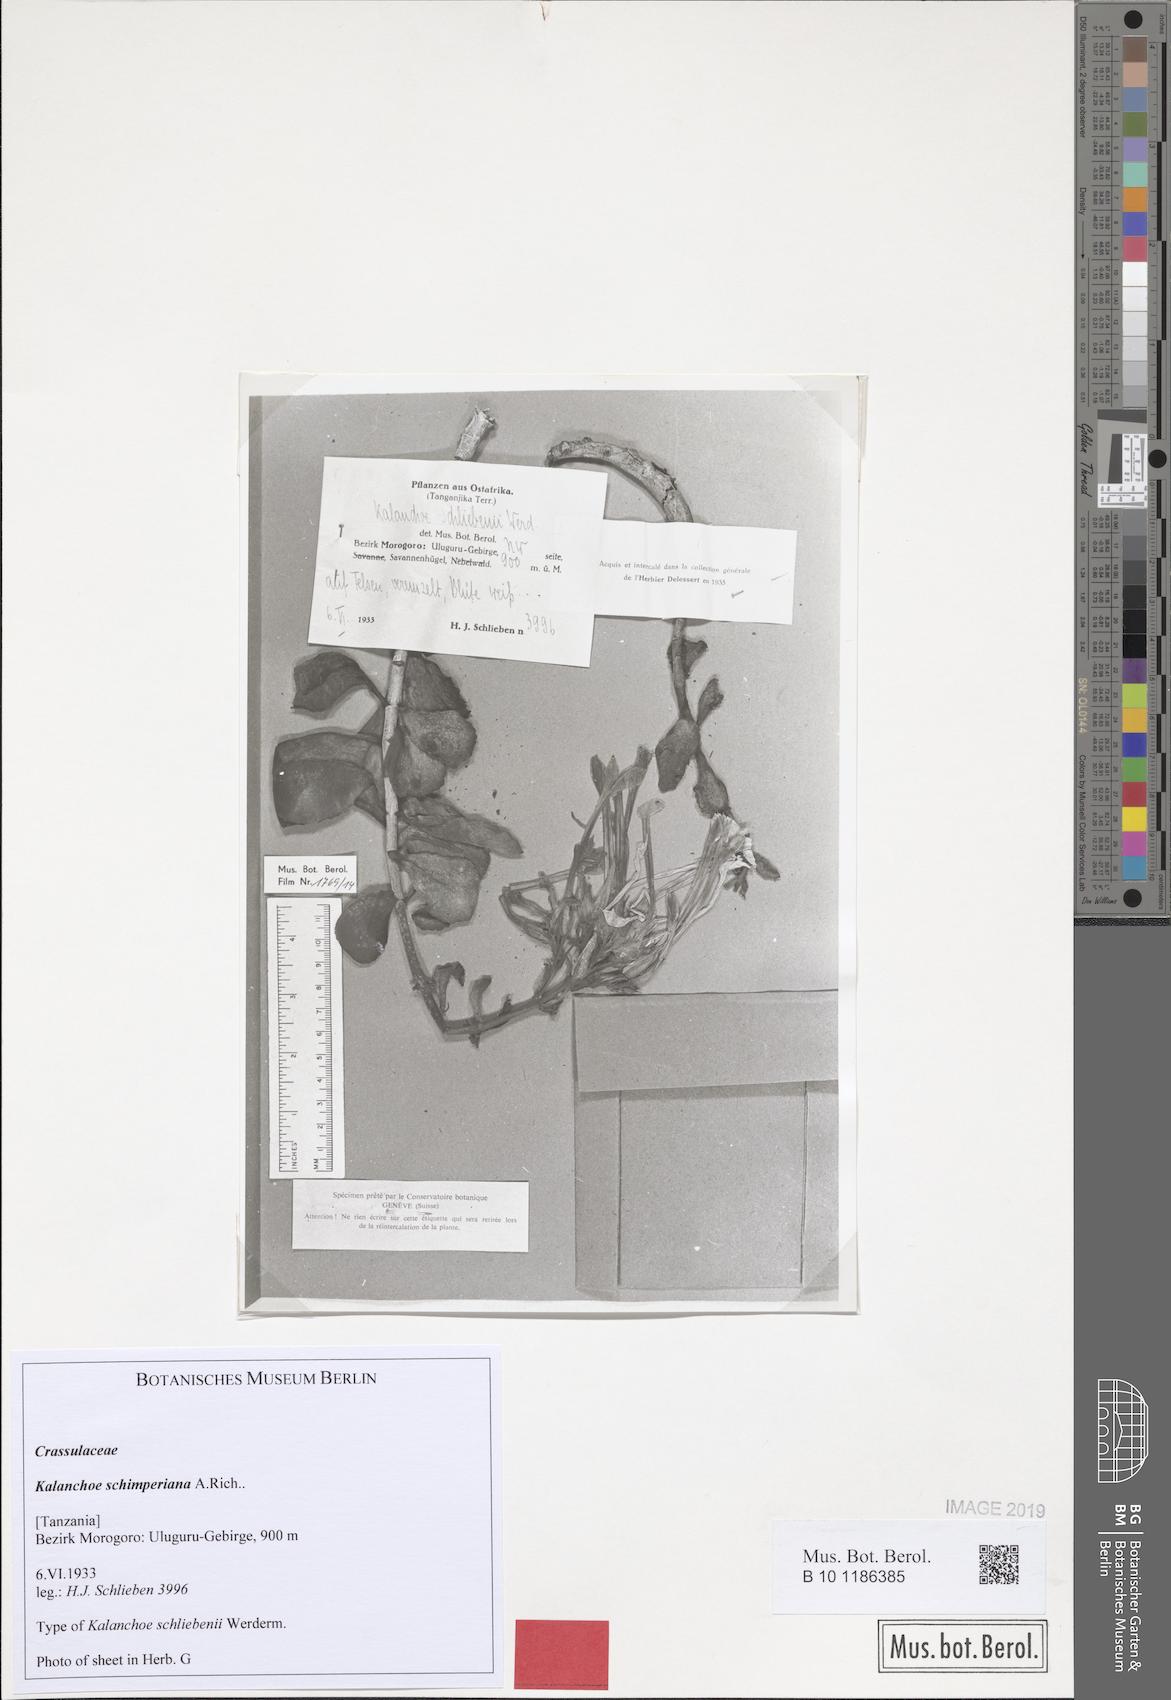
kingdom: Plantae
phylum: Tracheophyta
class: Magnoliopsida
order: Saxifragales
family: Crassulaceae
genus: Kalanchoe
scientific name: Kalanchoe schimperiana
